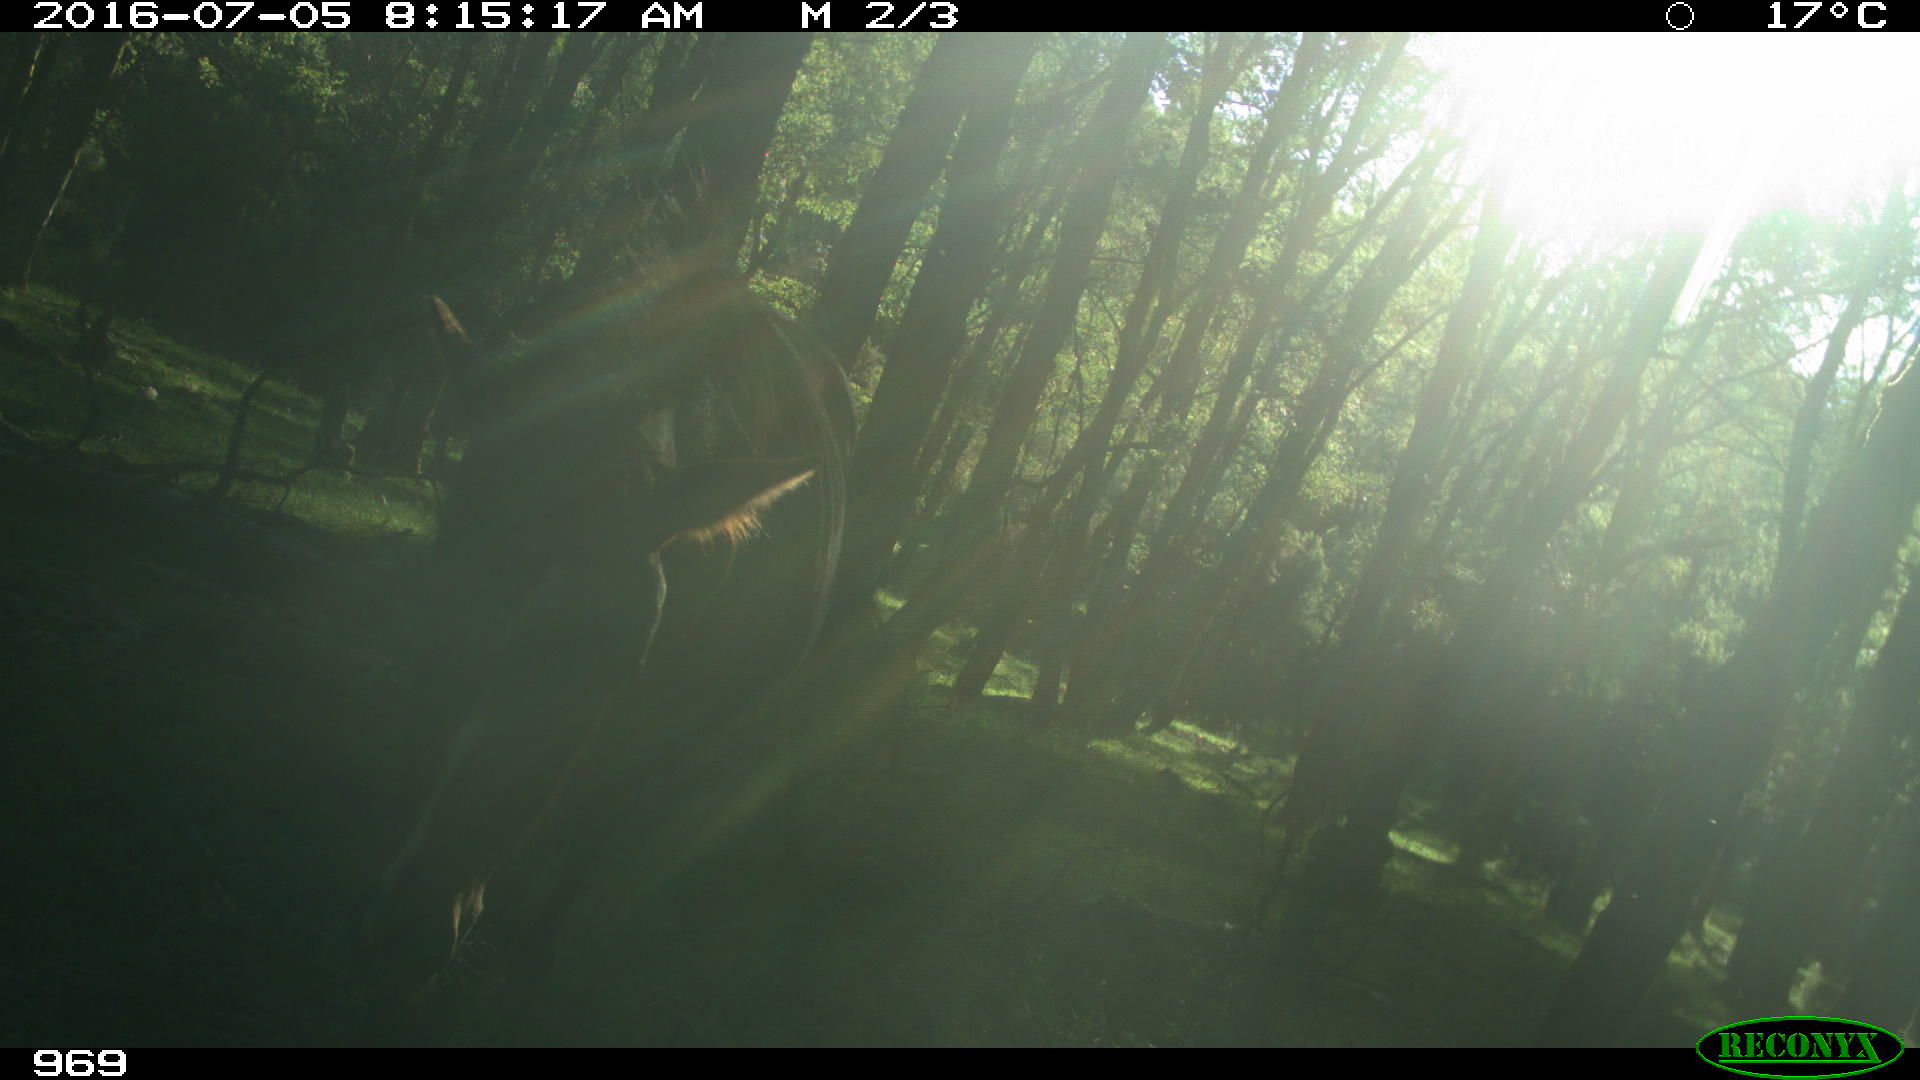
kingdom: Animalia
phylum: Chordata
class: Mammalia
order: Perissodactyla
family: Equidae
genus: Equus
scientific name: Equus caballus
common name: Horse
